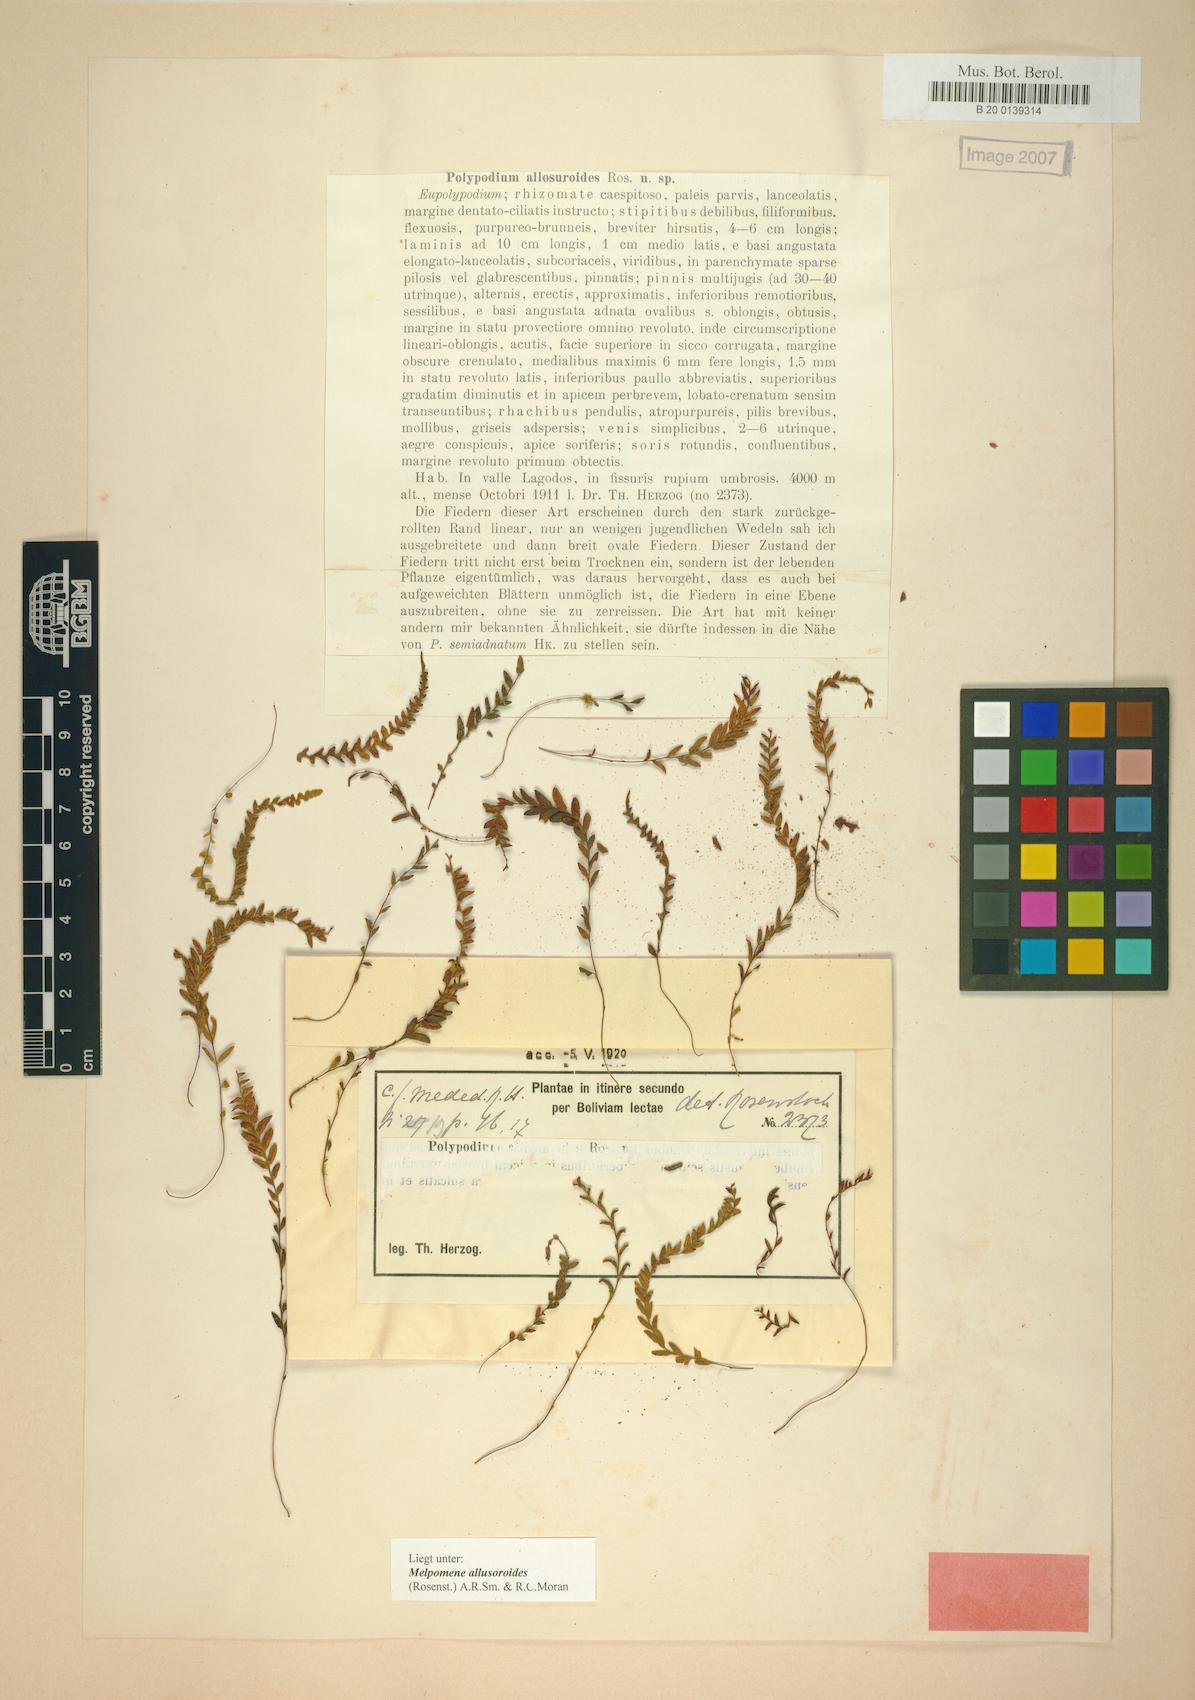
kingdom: Plantae
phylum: Tracheophyta
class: Polypodiopsida
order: Polypodiales
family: Polypodiaceae
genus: Melpomene
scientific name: Melpomene allosuroides
